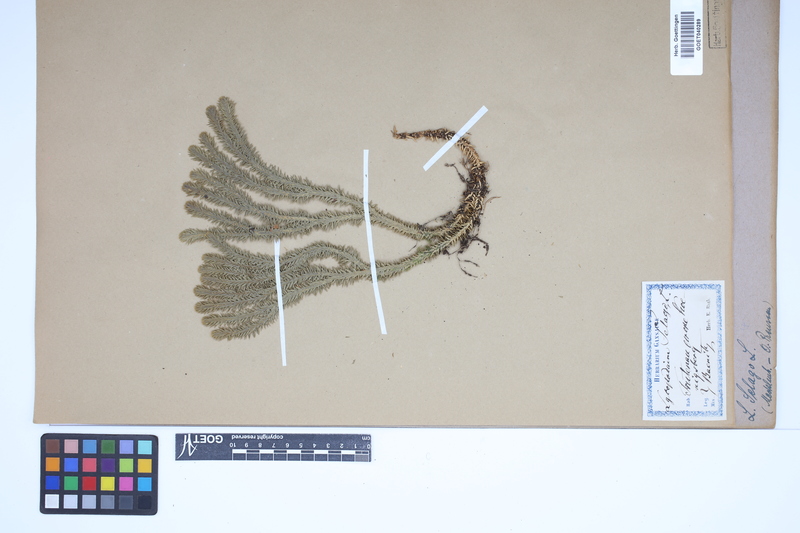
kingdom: Plantae
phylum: Tracheophyta
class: Lycopodiopsida
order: Lycopodiales
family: Lycopodiaceae
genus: Huperzia
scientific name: Huperzia selago
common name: Northern firmoss
